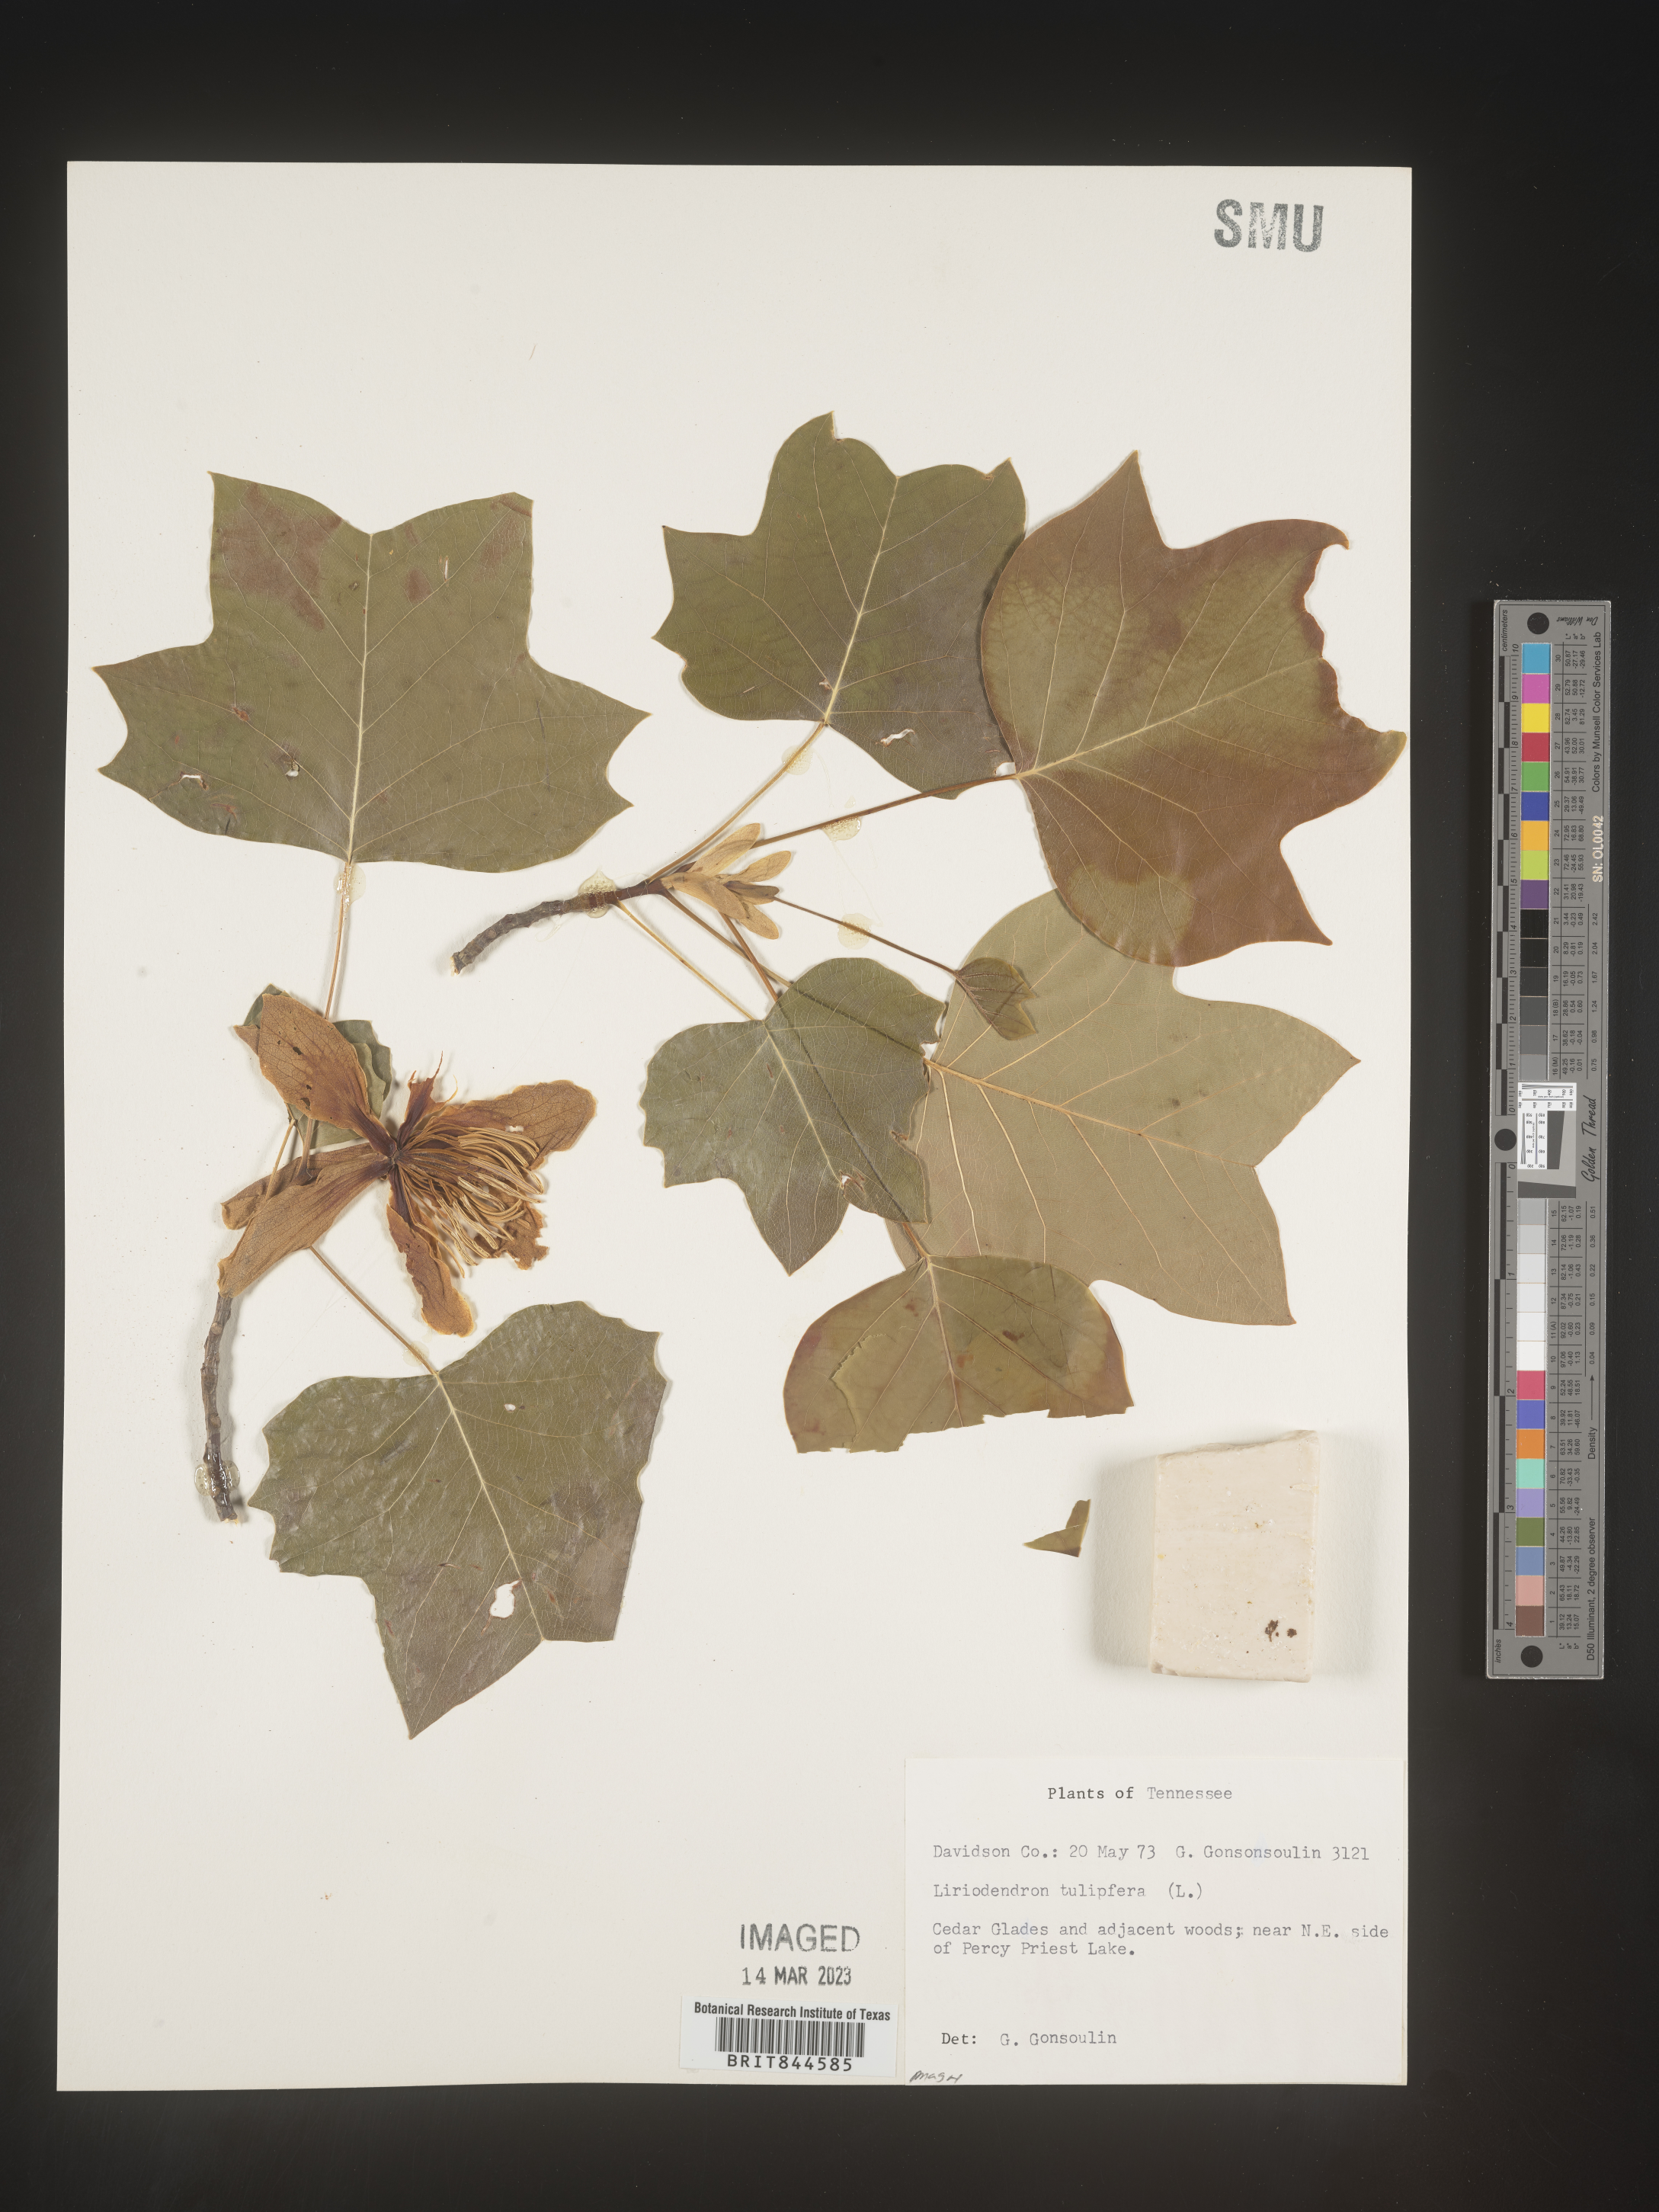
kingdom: Plantae
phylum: Tracheophyta
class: Magnoliopsida
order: Magnoliales
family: Magnoliaceae
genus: Liriodendron
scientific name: Liriodendron tulipifera
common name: Tulip tree
